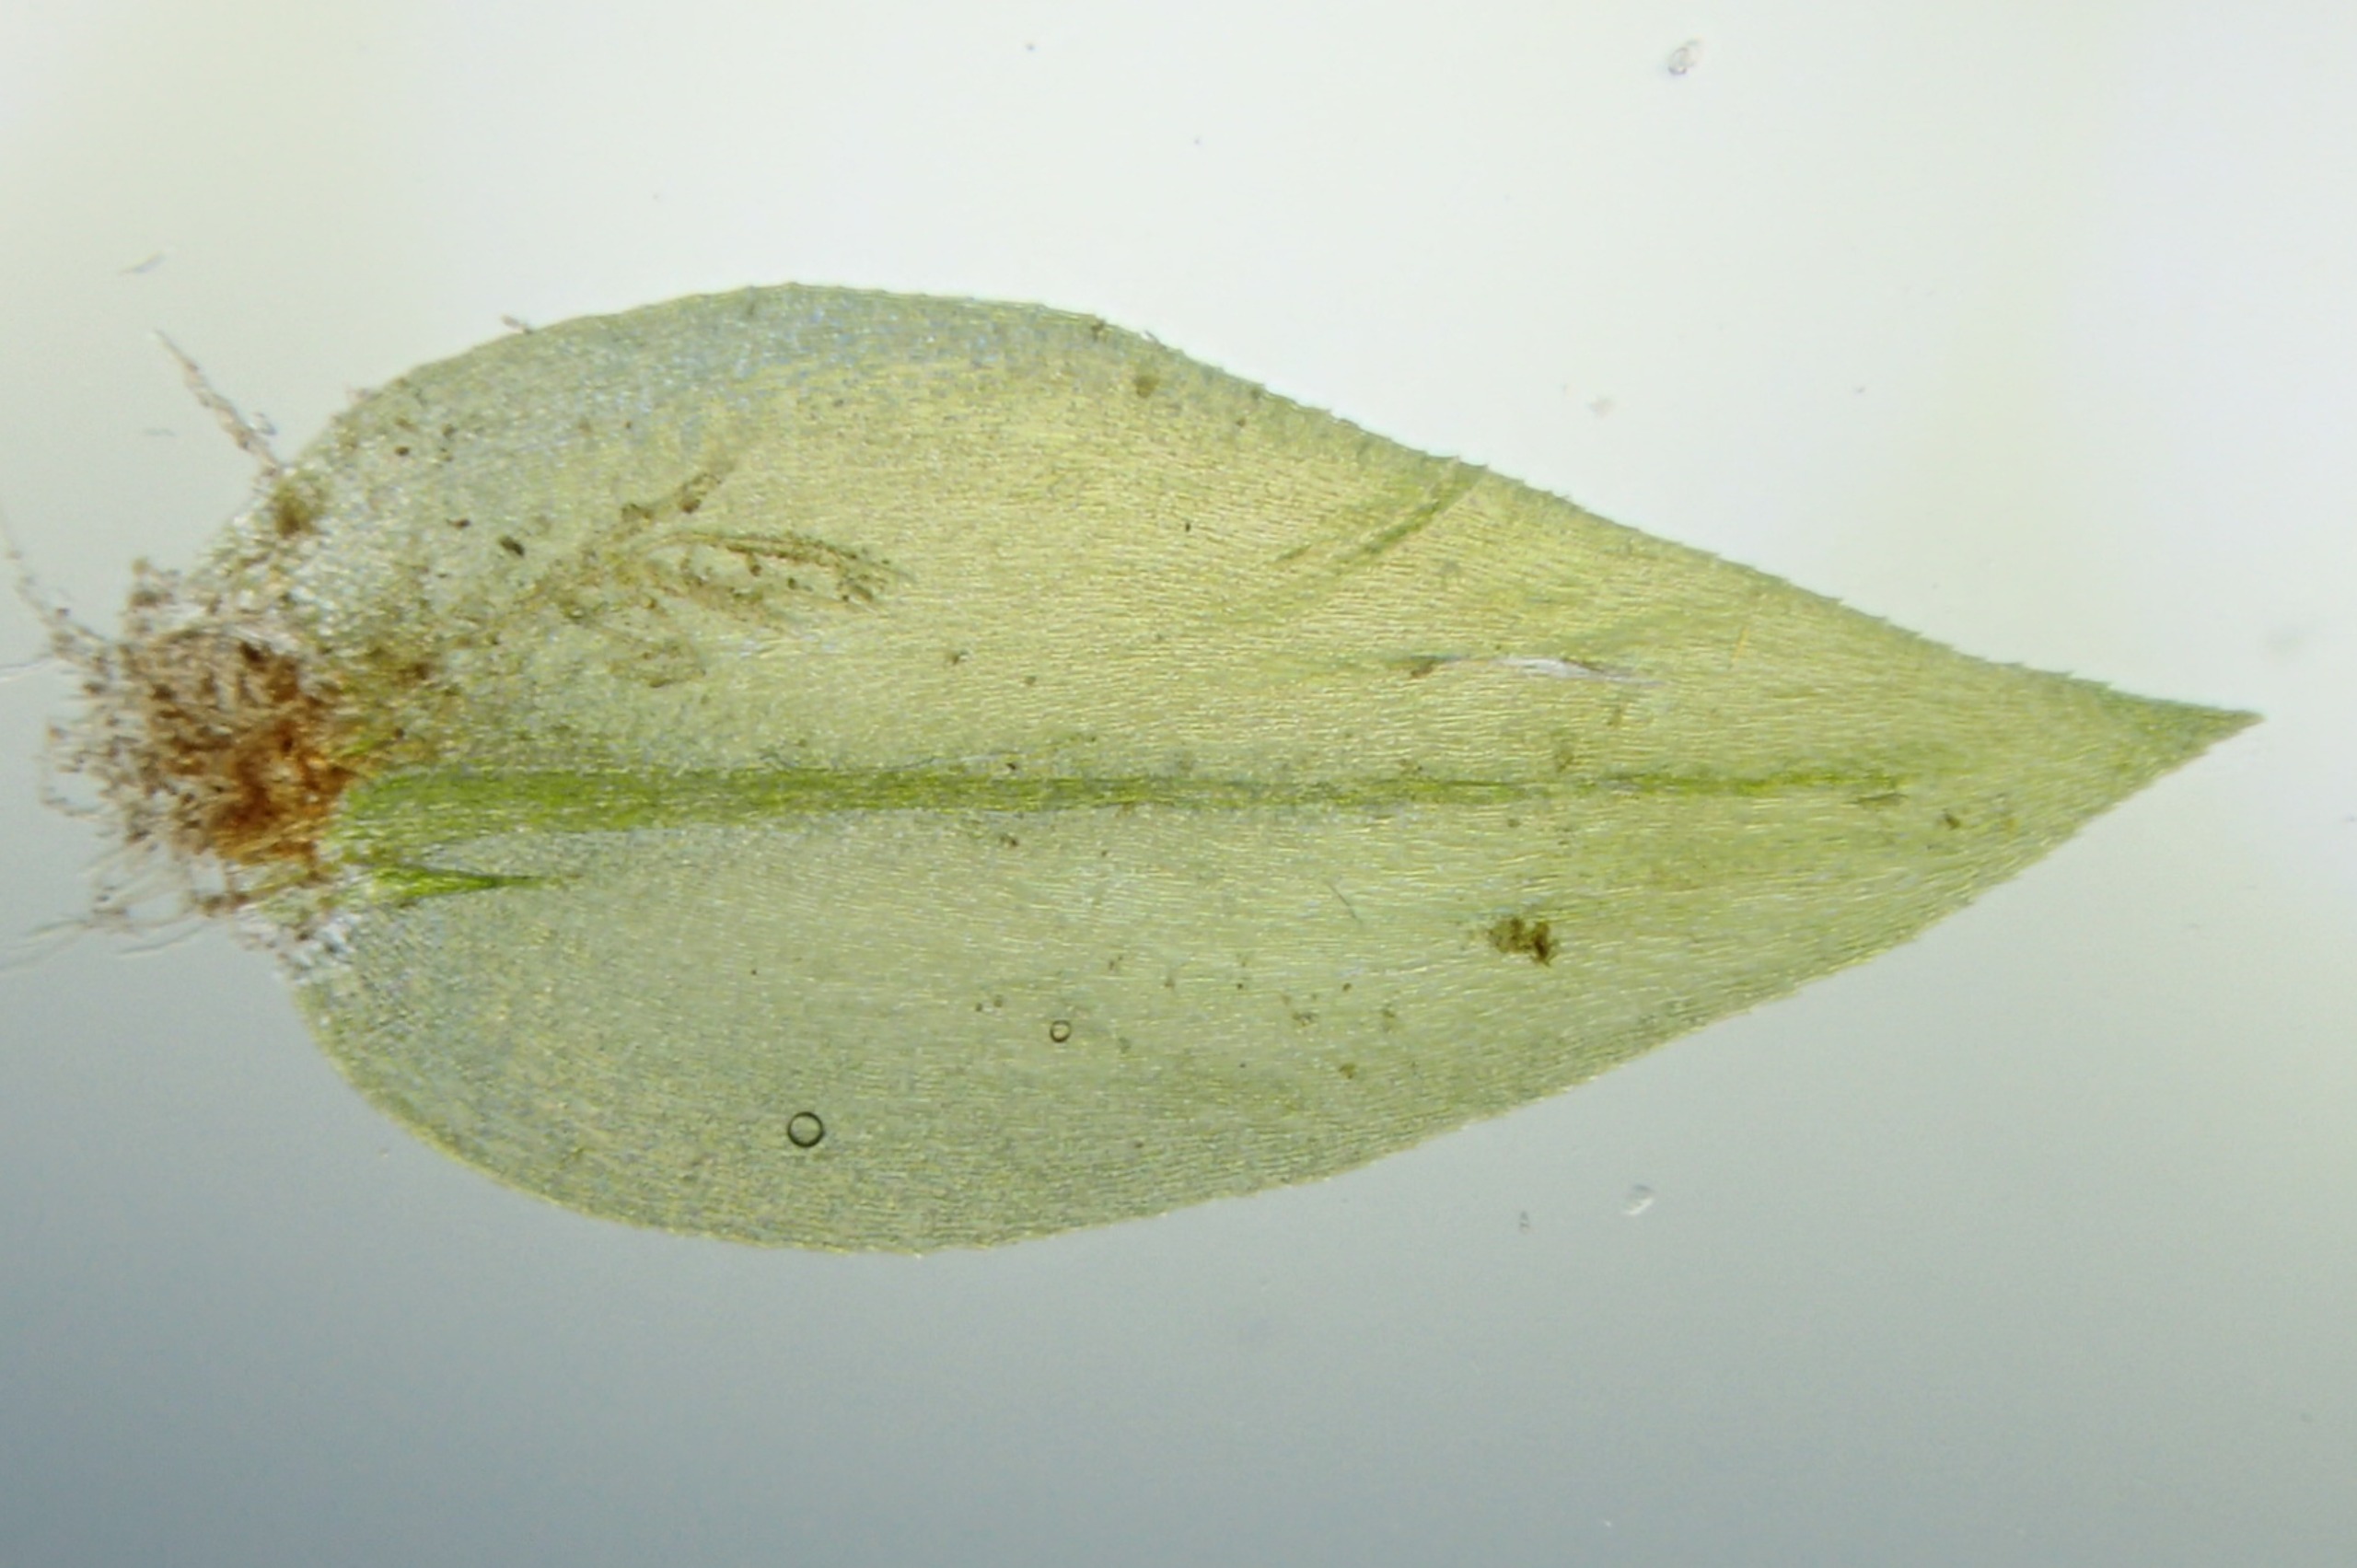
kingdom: Plantae
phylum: Bryophyta
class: Bryopsida
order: Hypnales
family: Brachytheciaceae
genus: Rhynchostegium
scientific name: Rhynchostegium riparioides
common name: Robust strømmos
